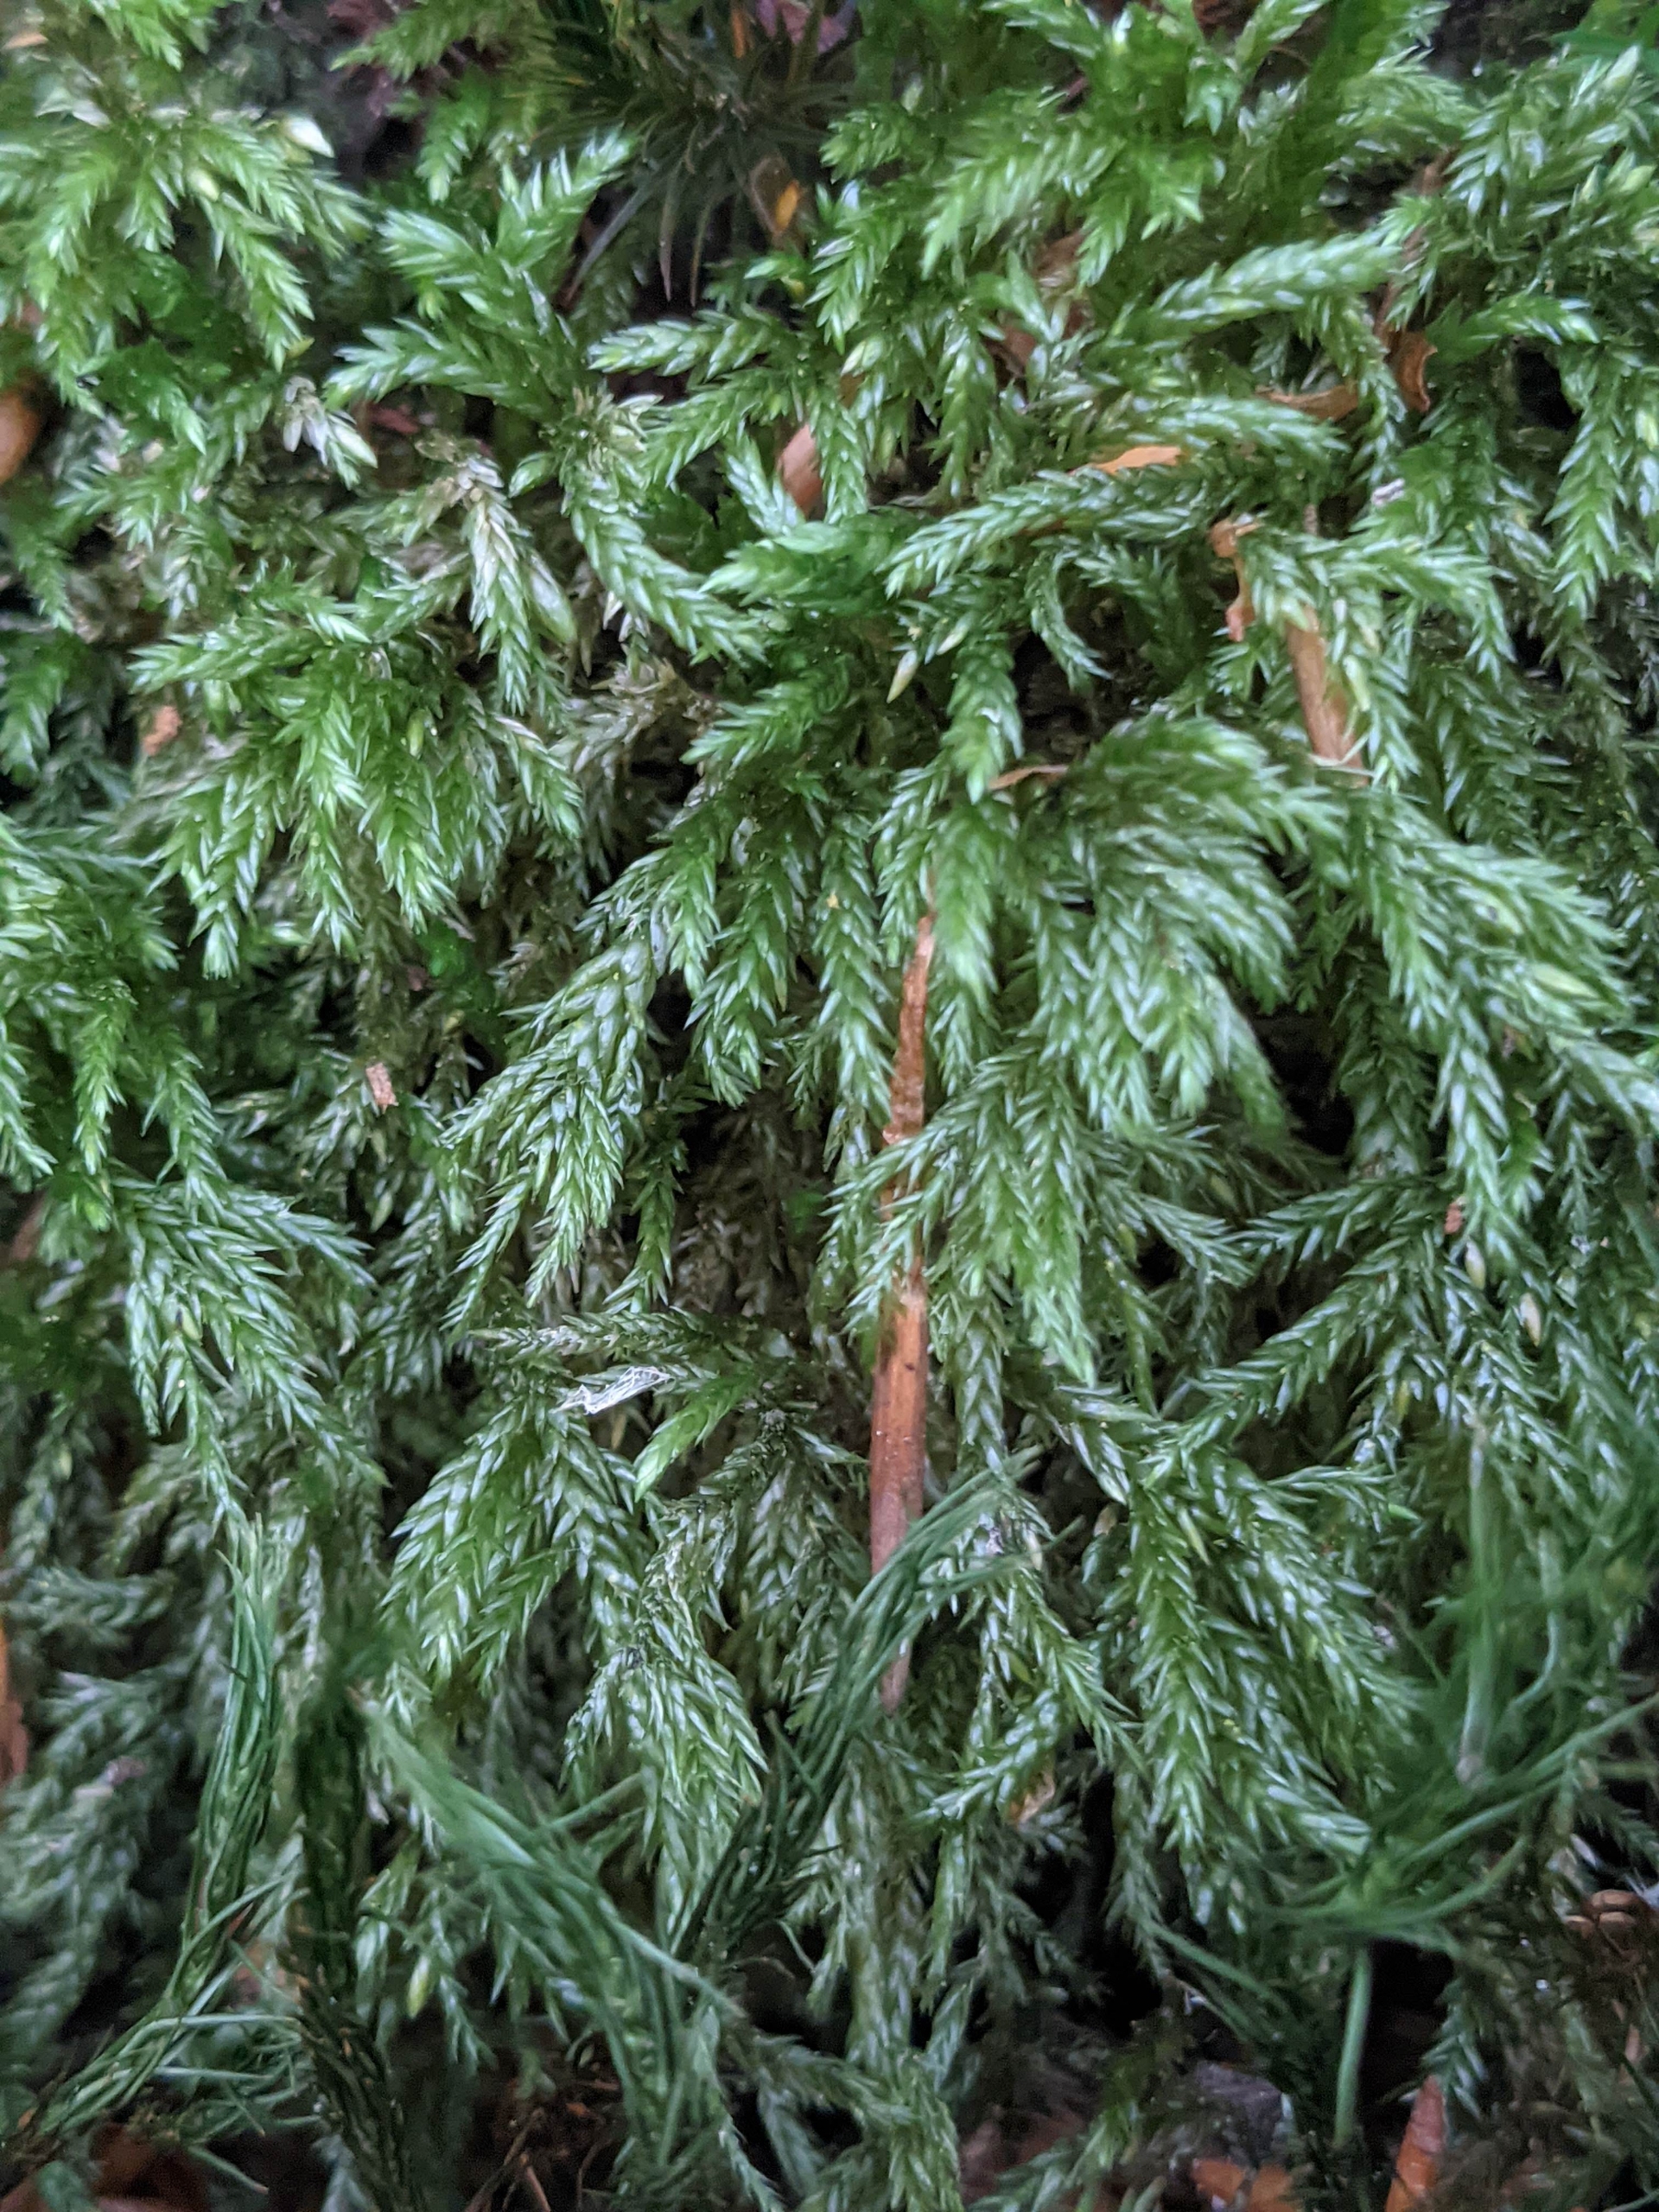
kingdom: Plantae
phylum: Bryophyta
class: Bryopsida
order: Hypnales
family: Lembophyllaceae
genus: Isothecium
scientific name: Isothecium alopecuroides
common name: Stor stammemos
